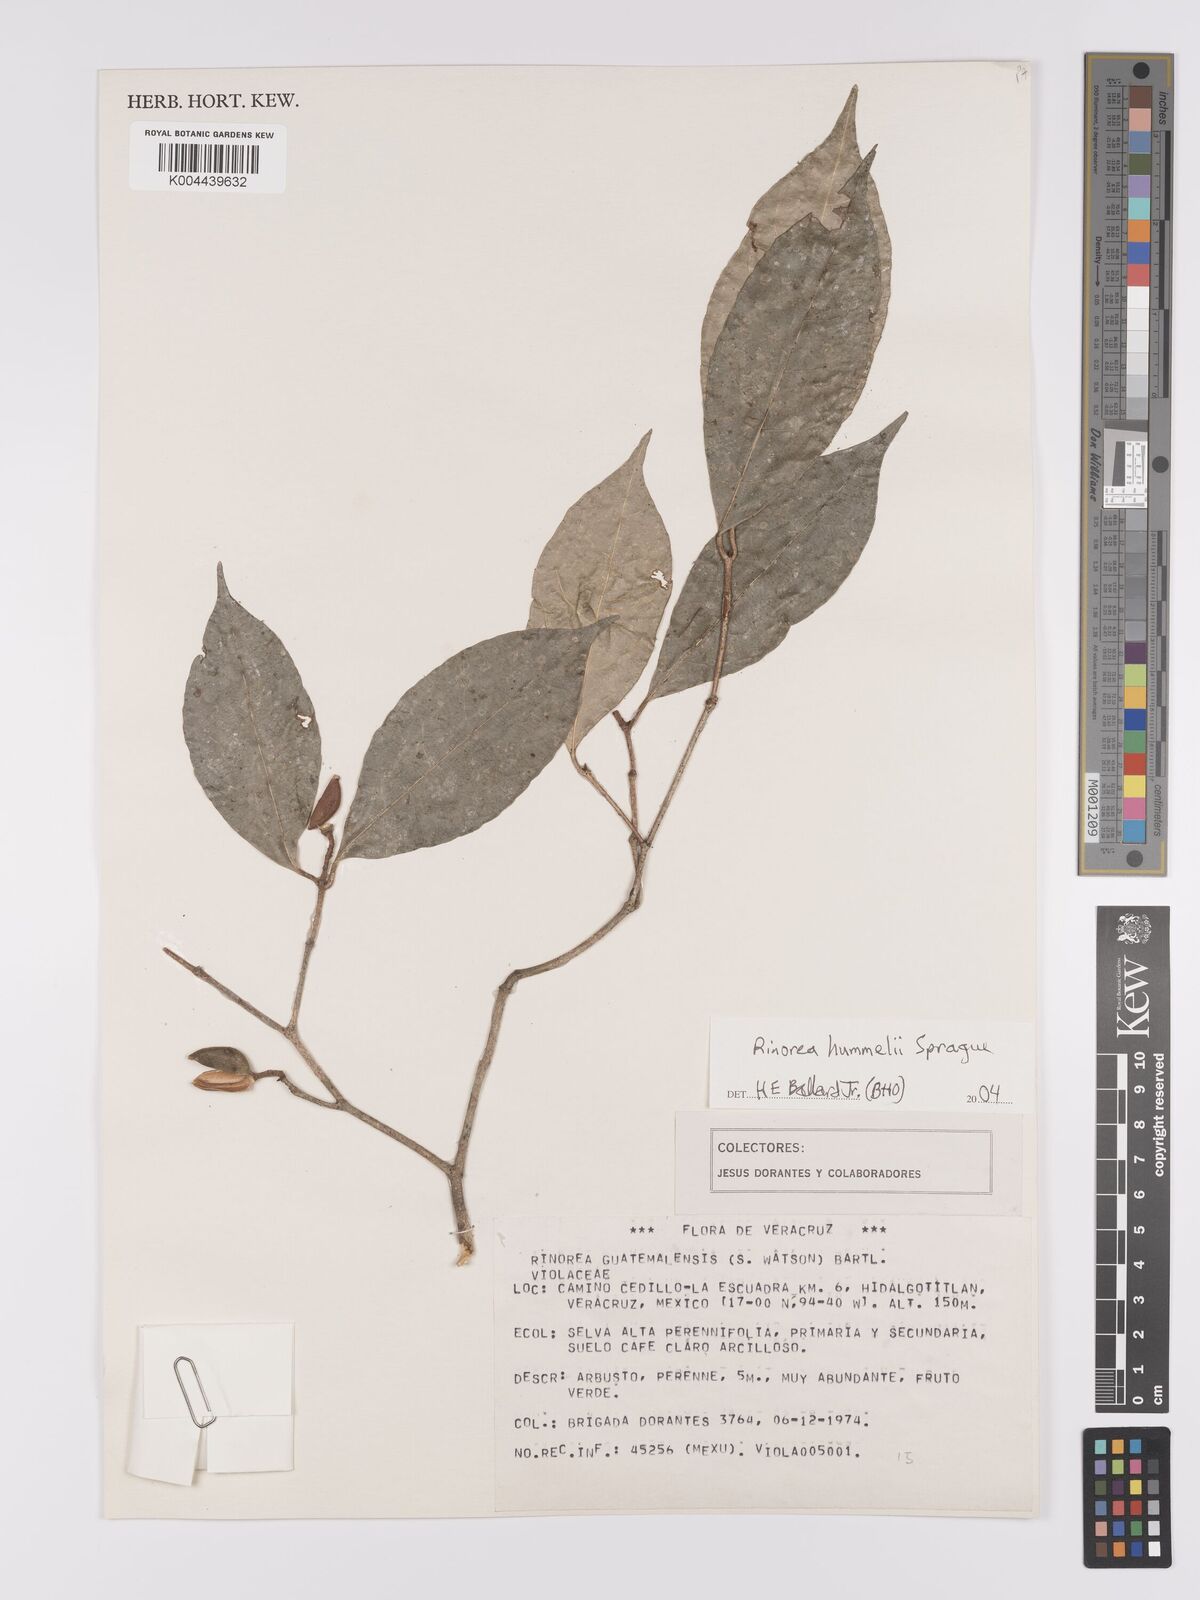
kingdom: Plantae
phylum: Tracheophyta
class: Magnoliopsida
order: Malpighiales
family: Violaceae
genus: Rinorea
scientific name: Rinorea hummelii
